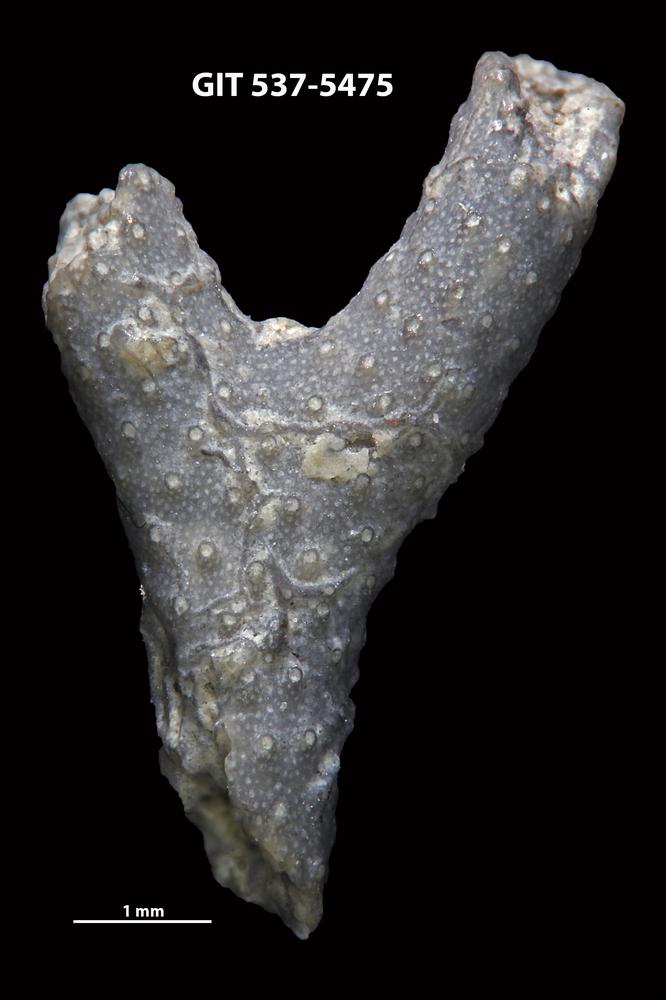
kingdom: Animalia
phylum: Bryozoa
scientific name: Bryozoa
